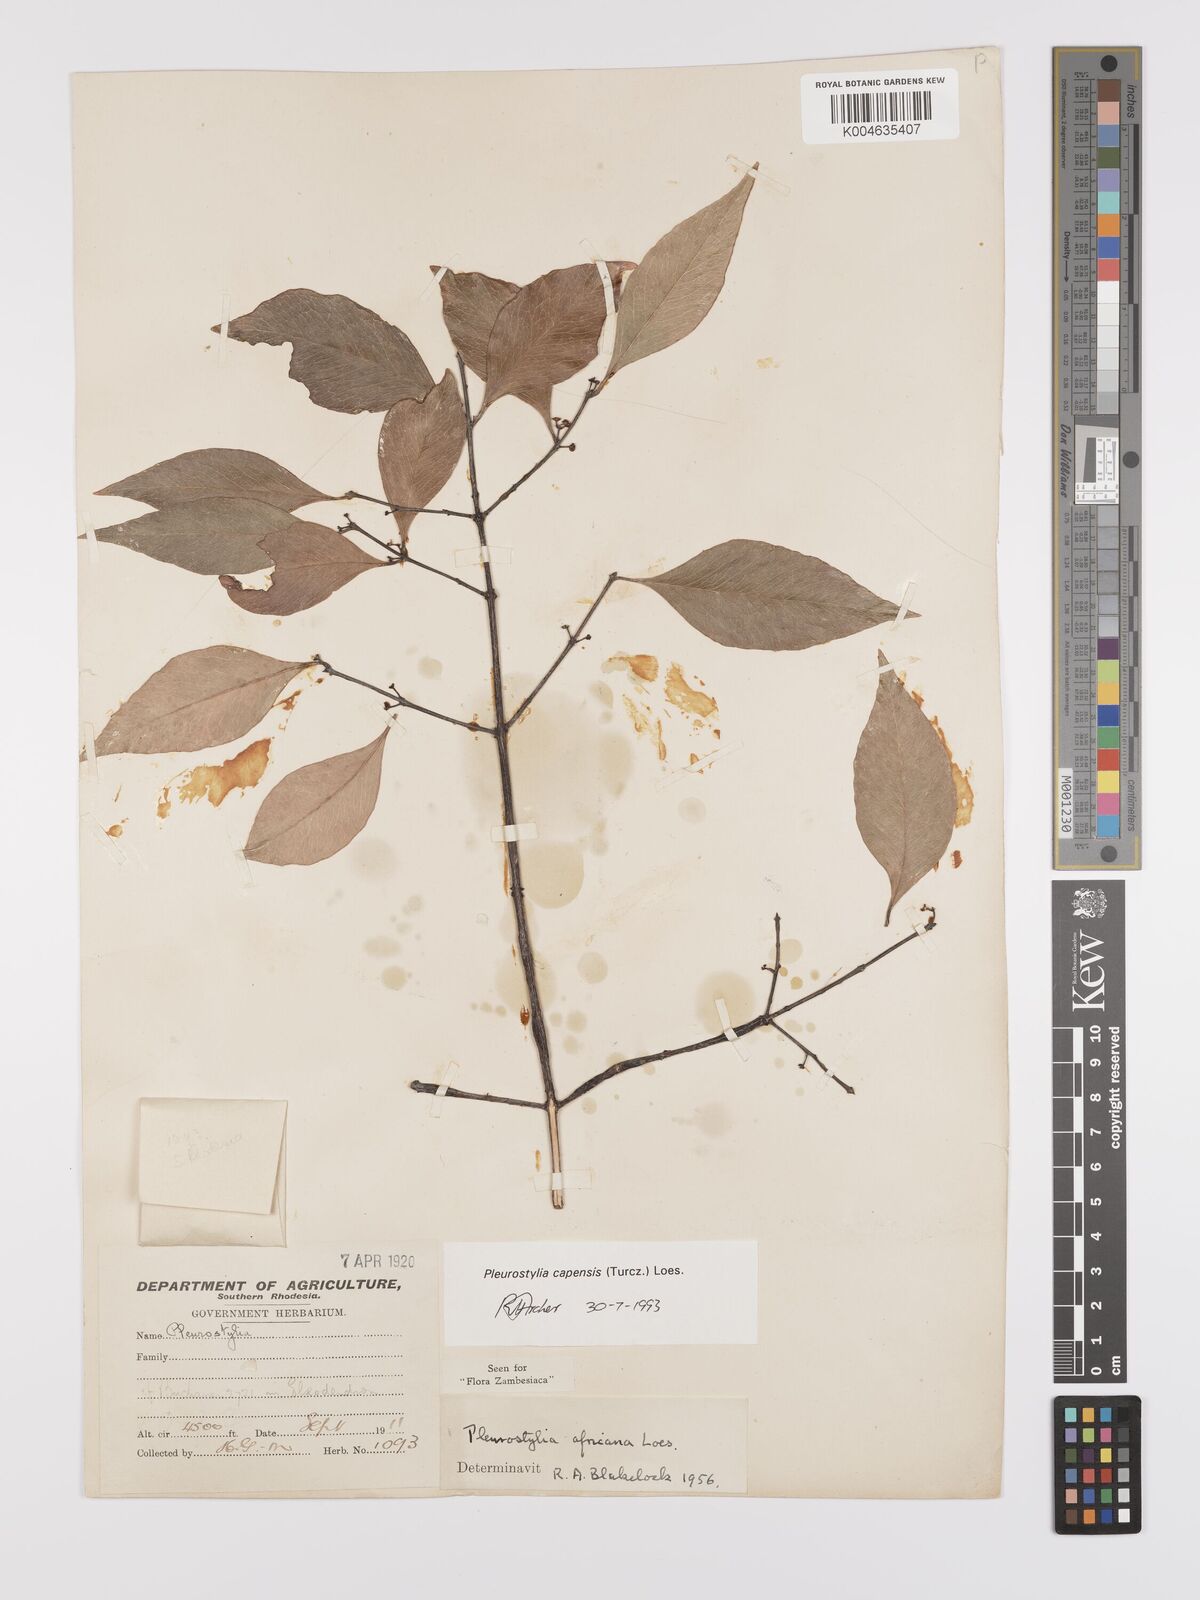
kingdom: Plantae
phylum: Tracheophyta
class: Magnoliopsida
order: Celastrales
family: Celastraceae
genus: Pleurostylia
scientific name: Pleurostylia africana
